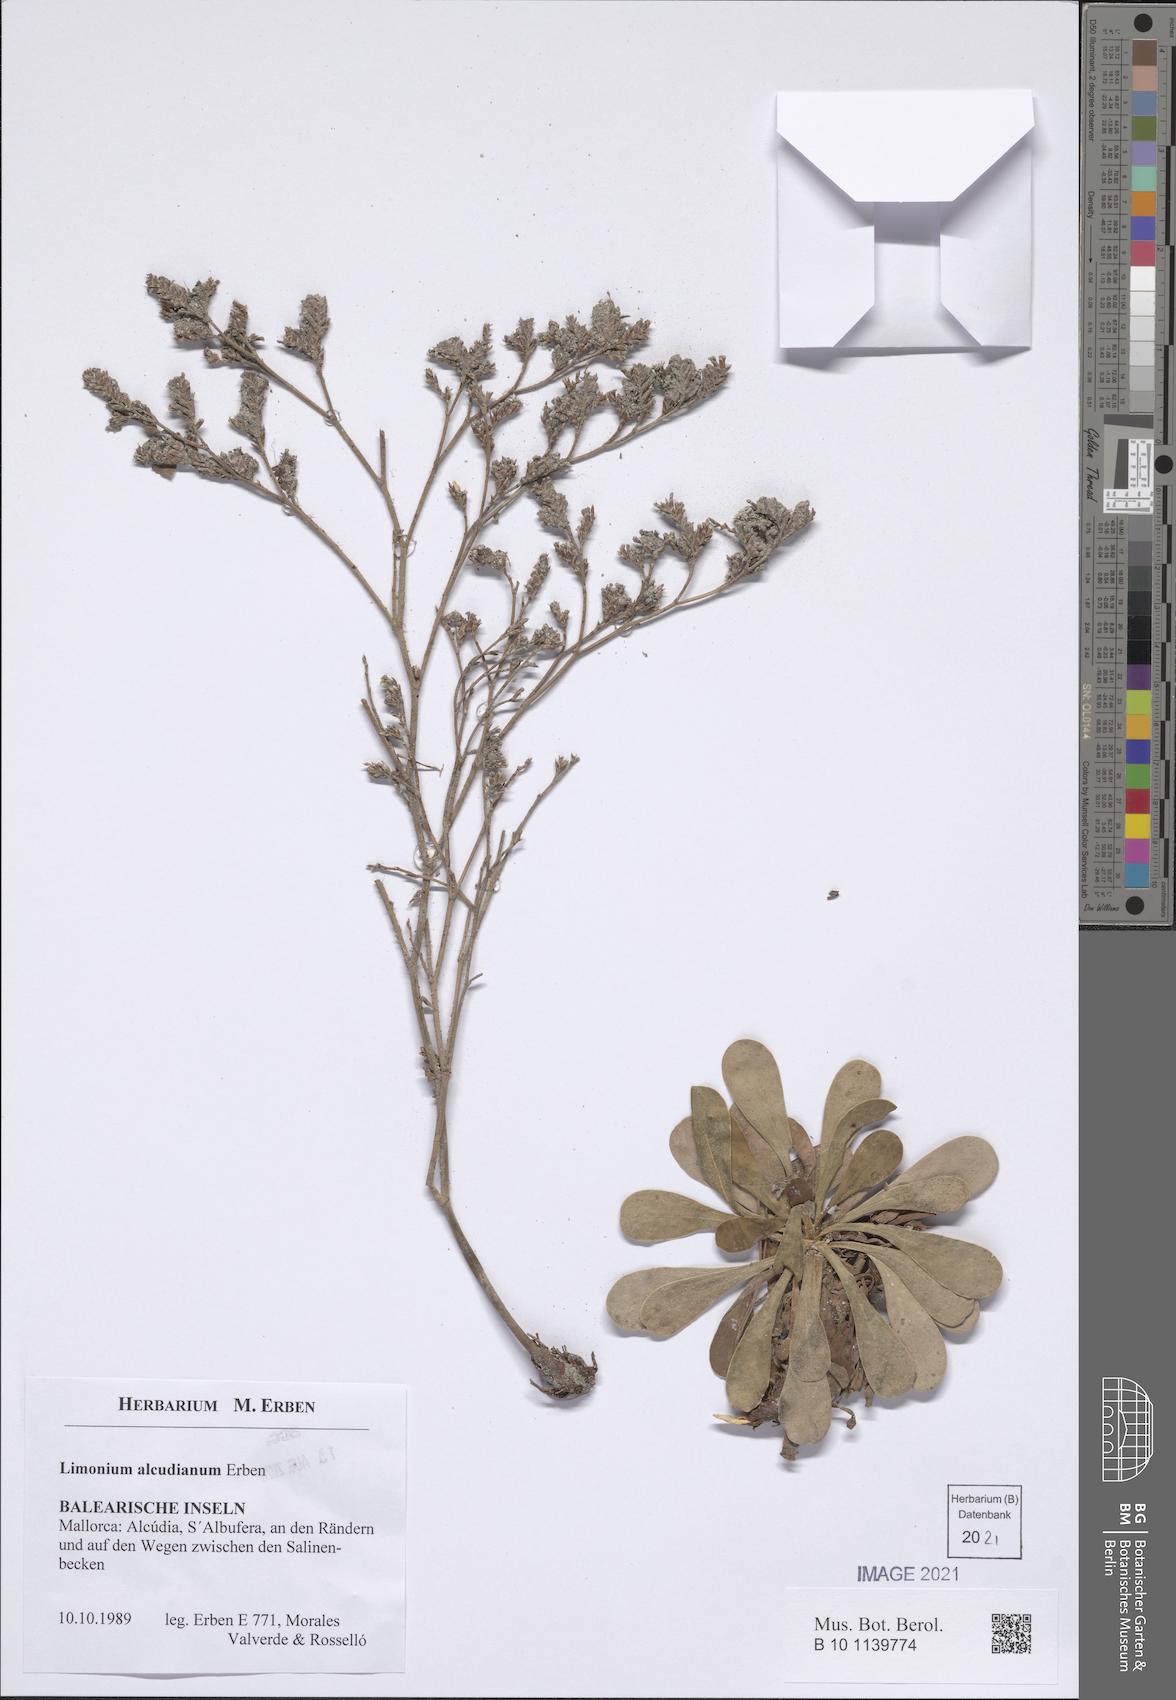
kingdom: Plantae
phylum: Tracheophyta
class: Magnoliopsida
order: Caryophyllales
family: Plumbaginaceae
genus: Limonium
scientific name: Limonium alcudianum
